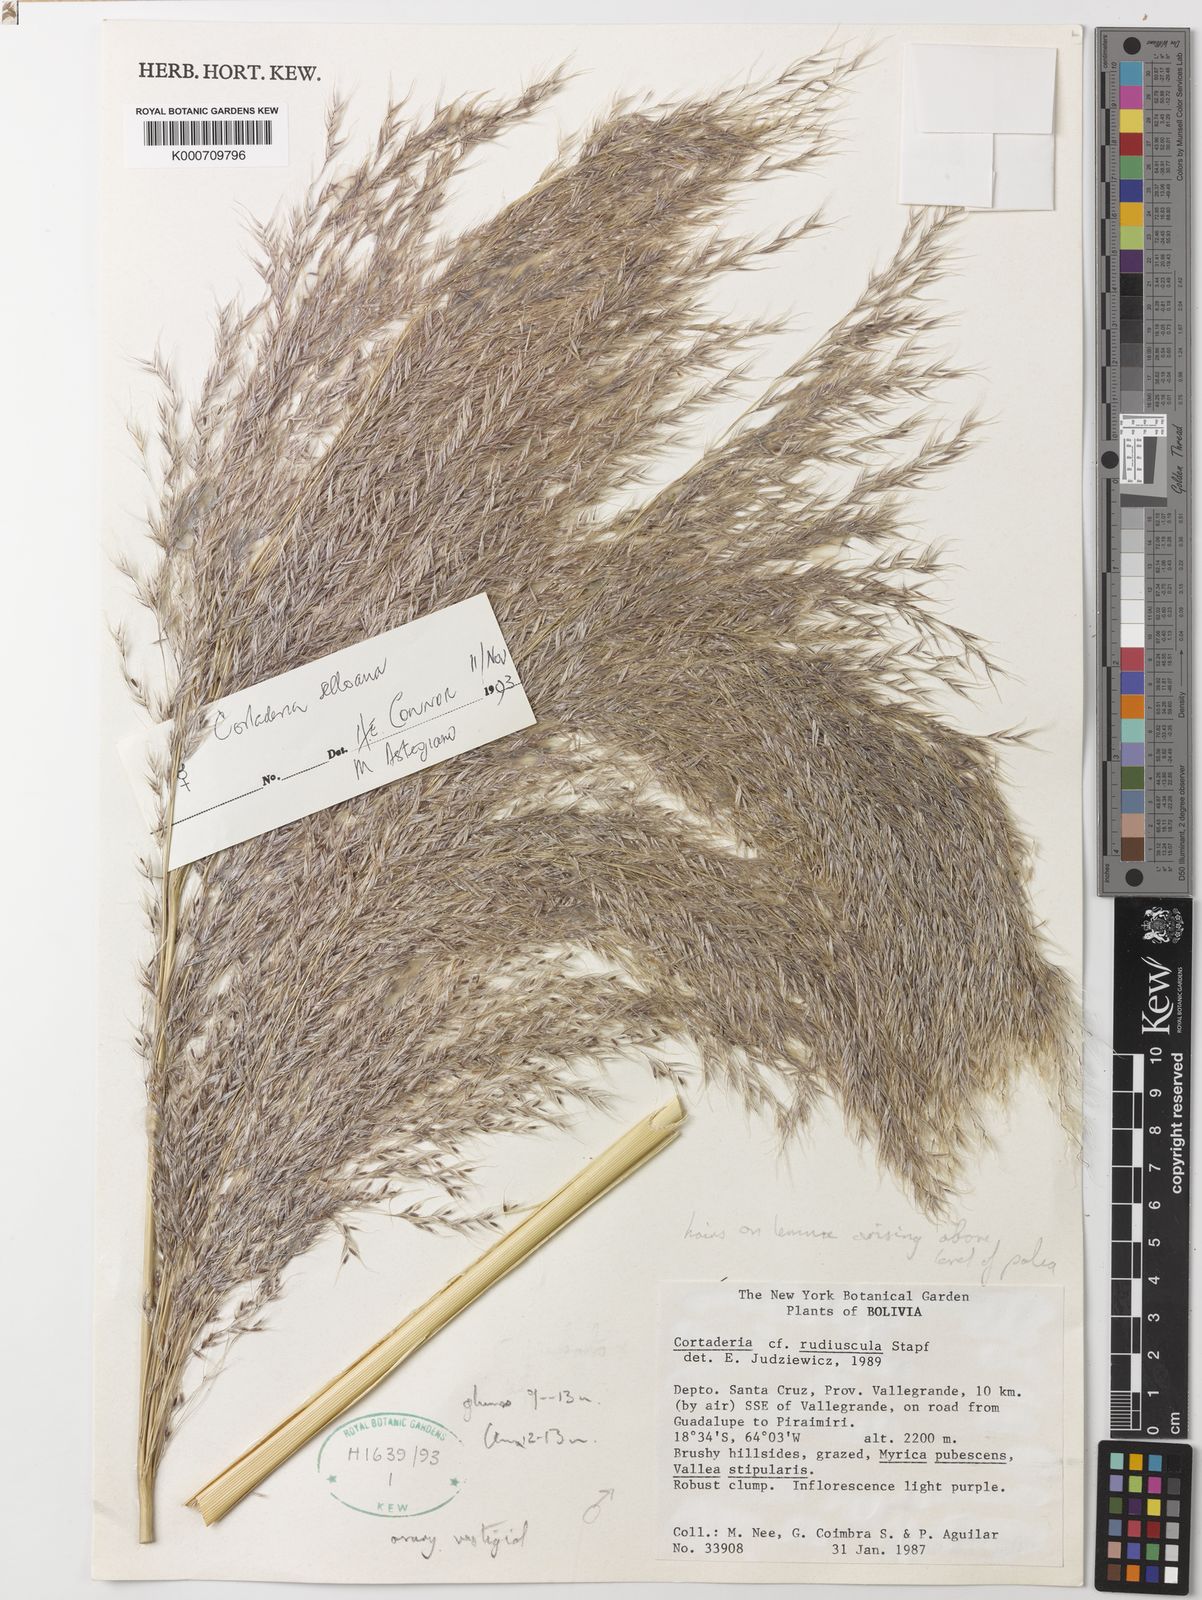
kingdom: Plantae
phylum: Tracheophyta
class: Liliopsida
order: Poales
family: Poaceae
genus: Cortaderia
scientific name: Cortaderia selloana
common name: Uruguayan pampas grass
